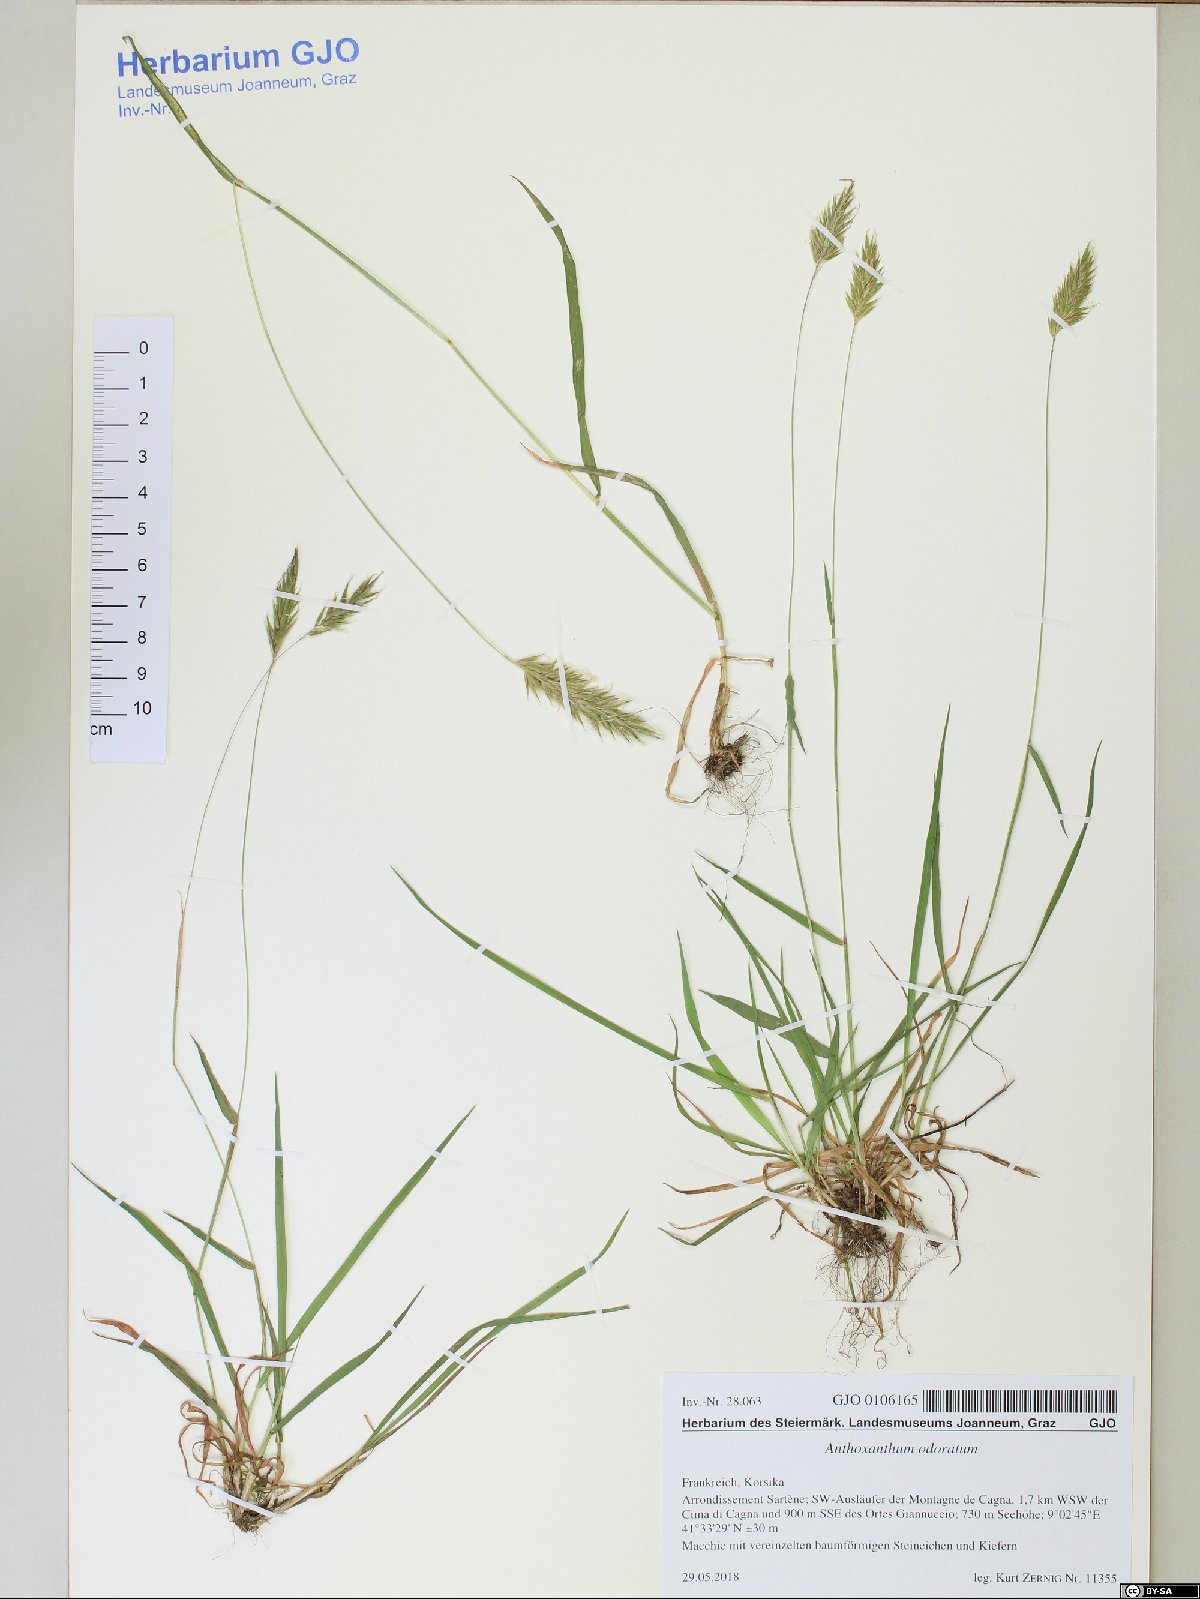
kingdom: Plantae
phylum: Tracheophyta
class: Liliopsida
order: Poales
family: Poaceae
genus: Anthoxanthum
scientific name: Anthoxanthum odoratum
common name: Sweet vernalgrass
